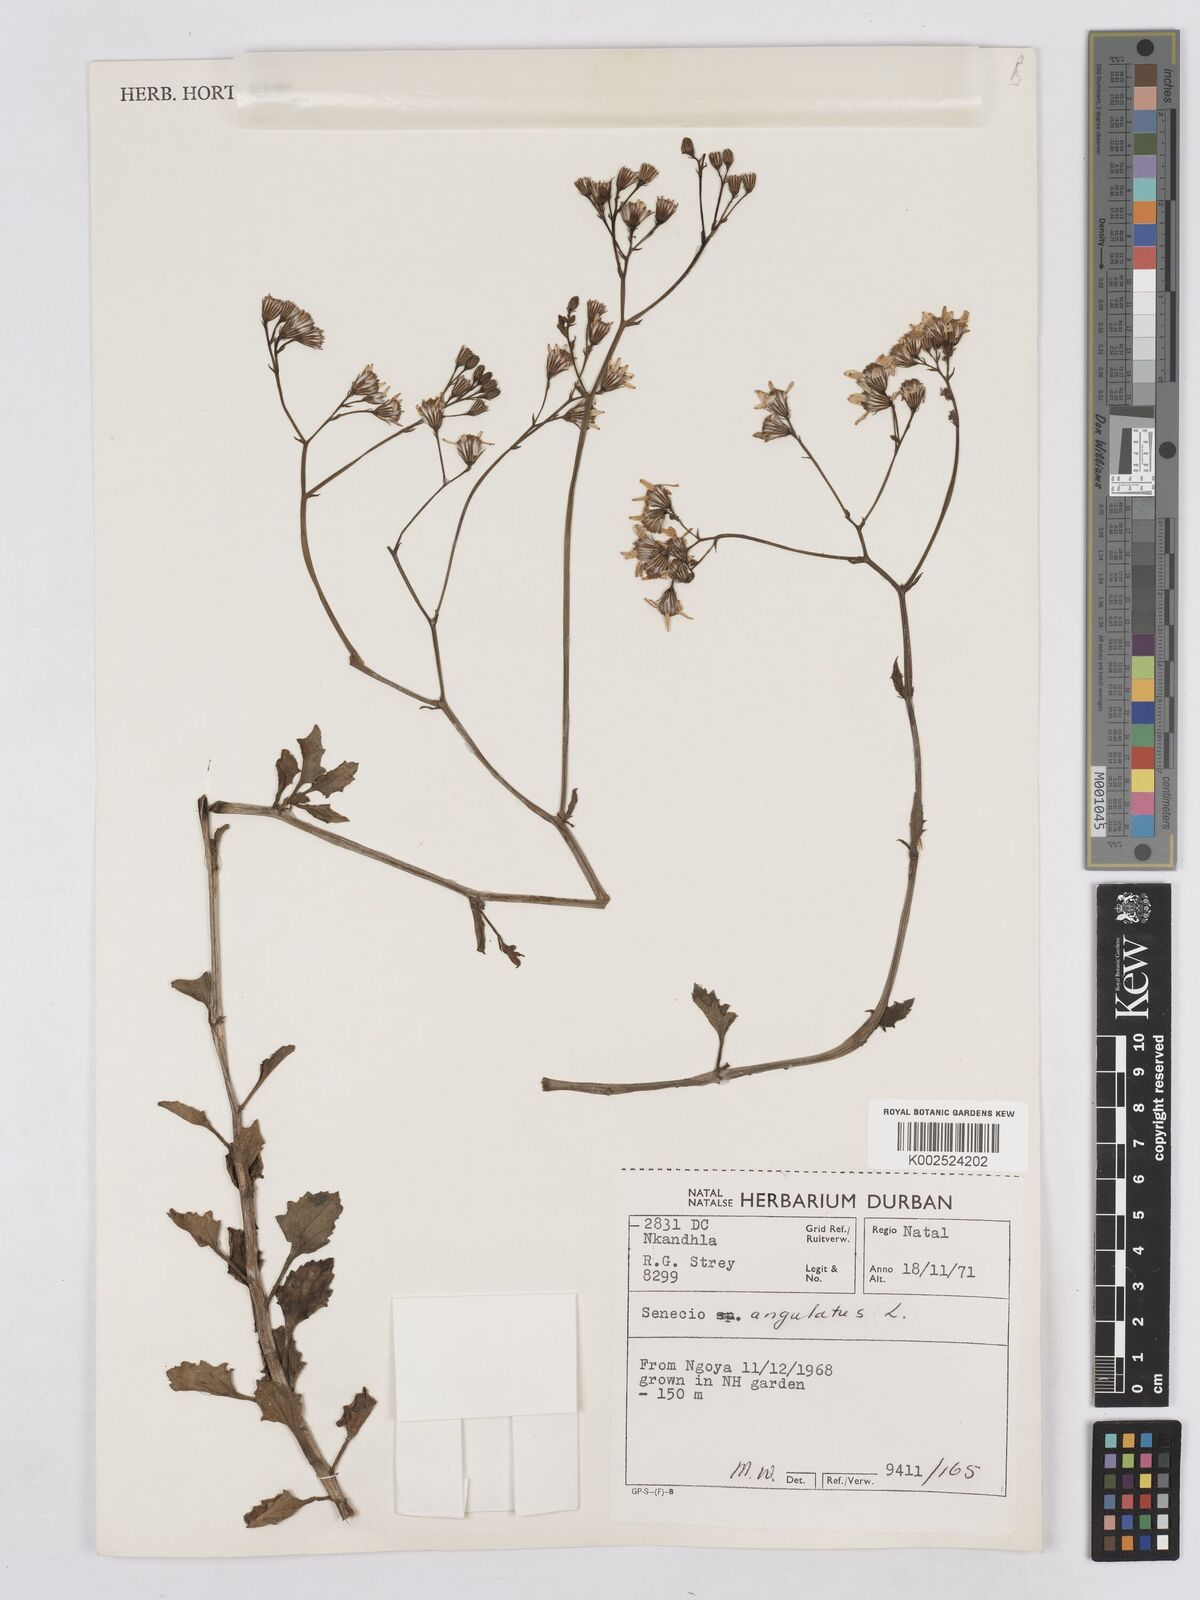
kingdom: Plantae
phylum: Tracheophyta
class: Magnoliopsida
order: Asterales
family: Asteraceae
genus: Senecio
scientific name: Senecio angulatus
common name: Climbing groundsel
